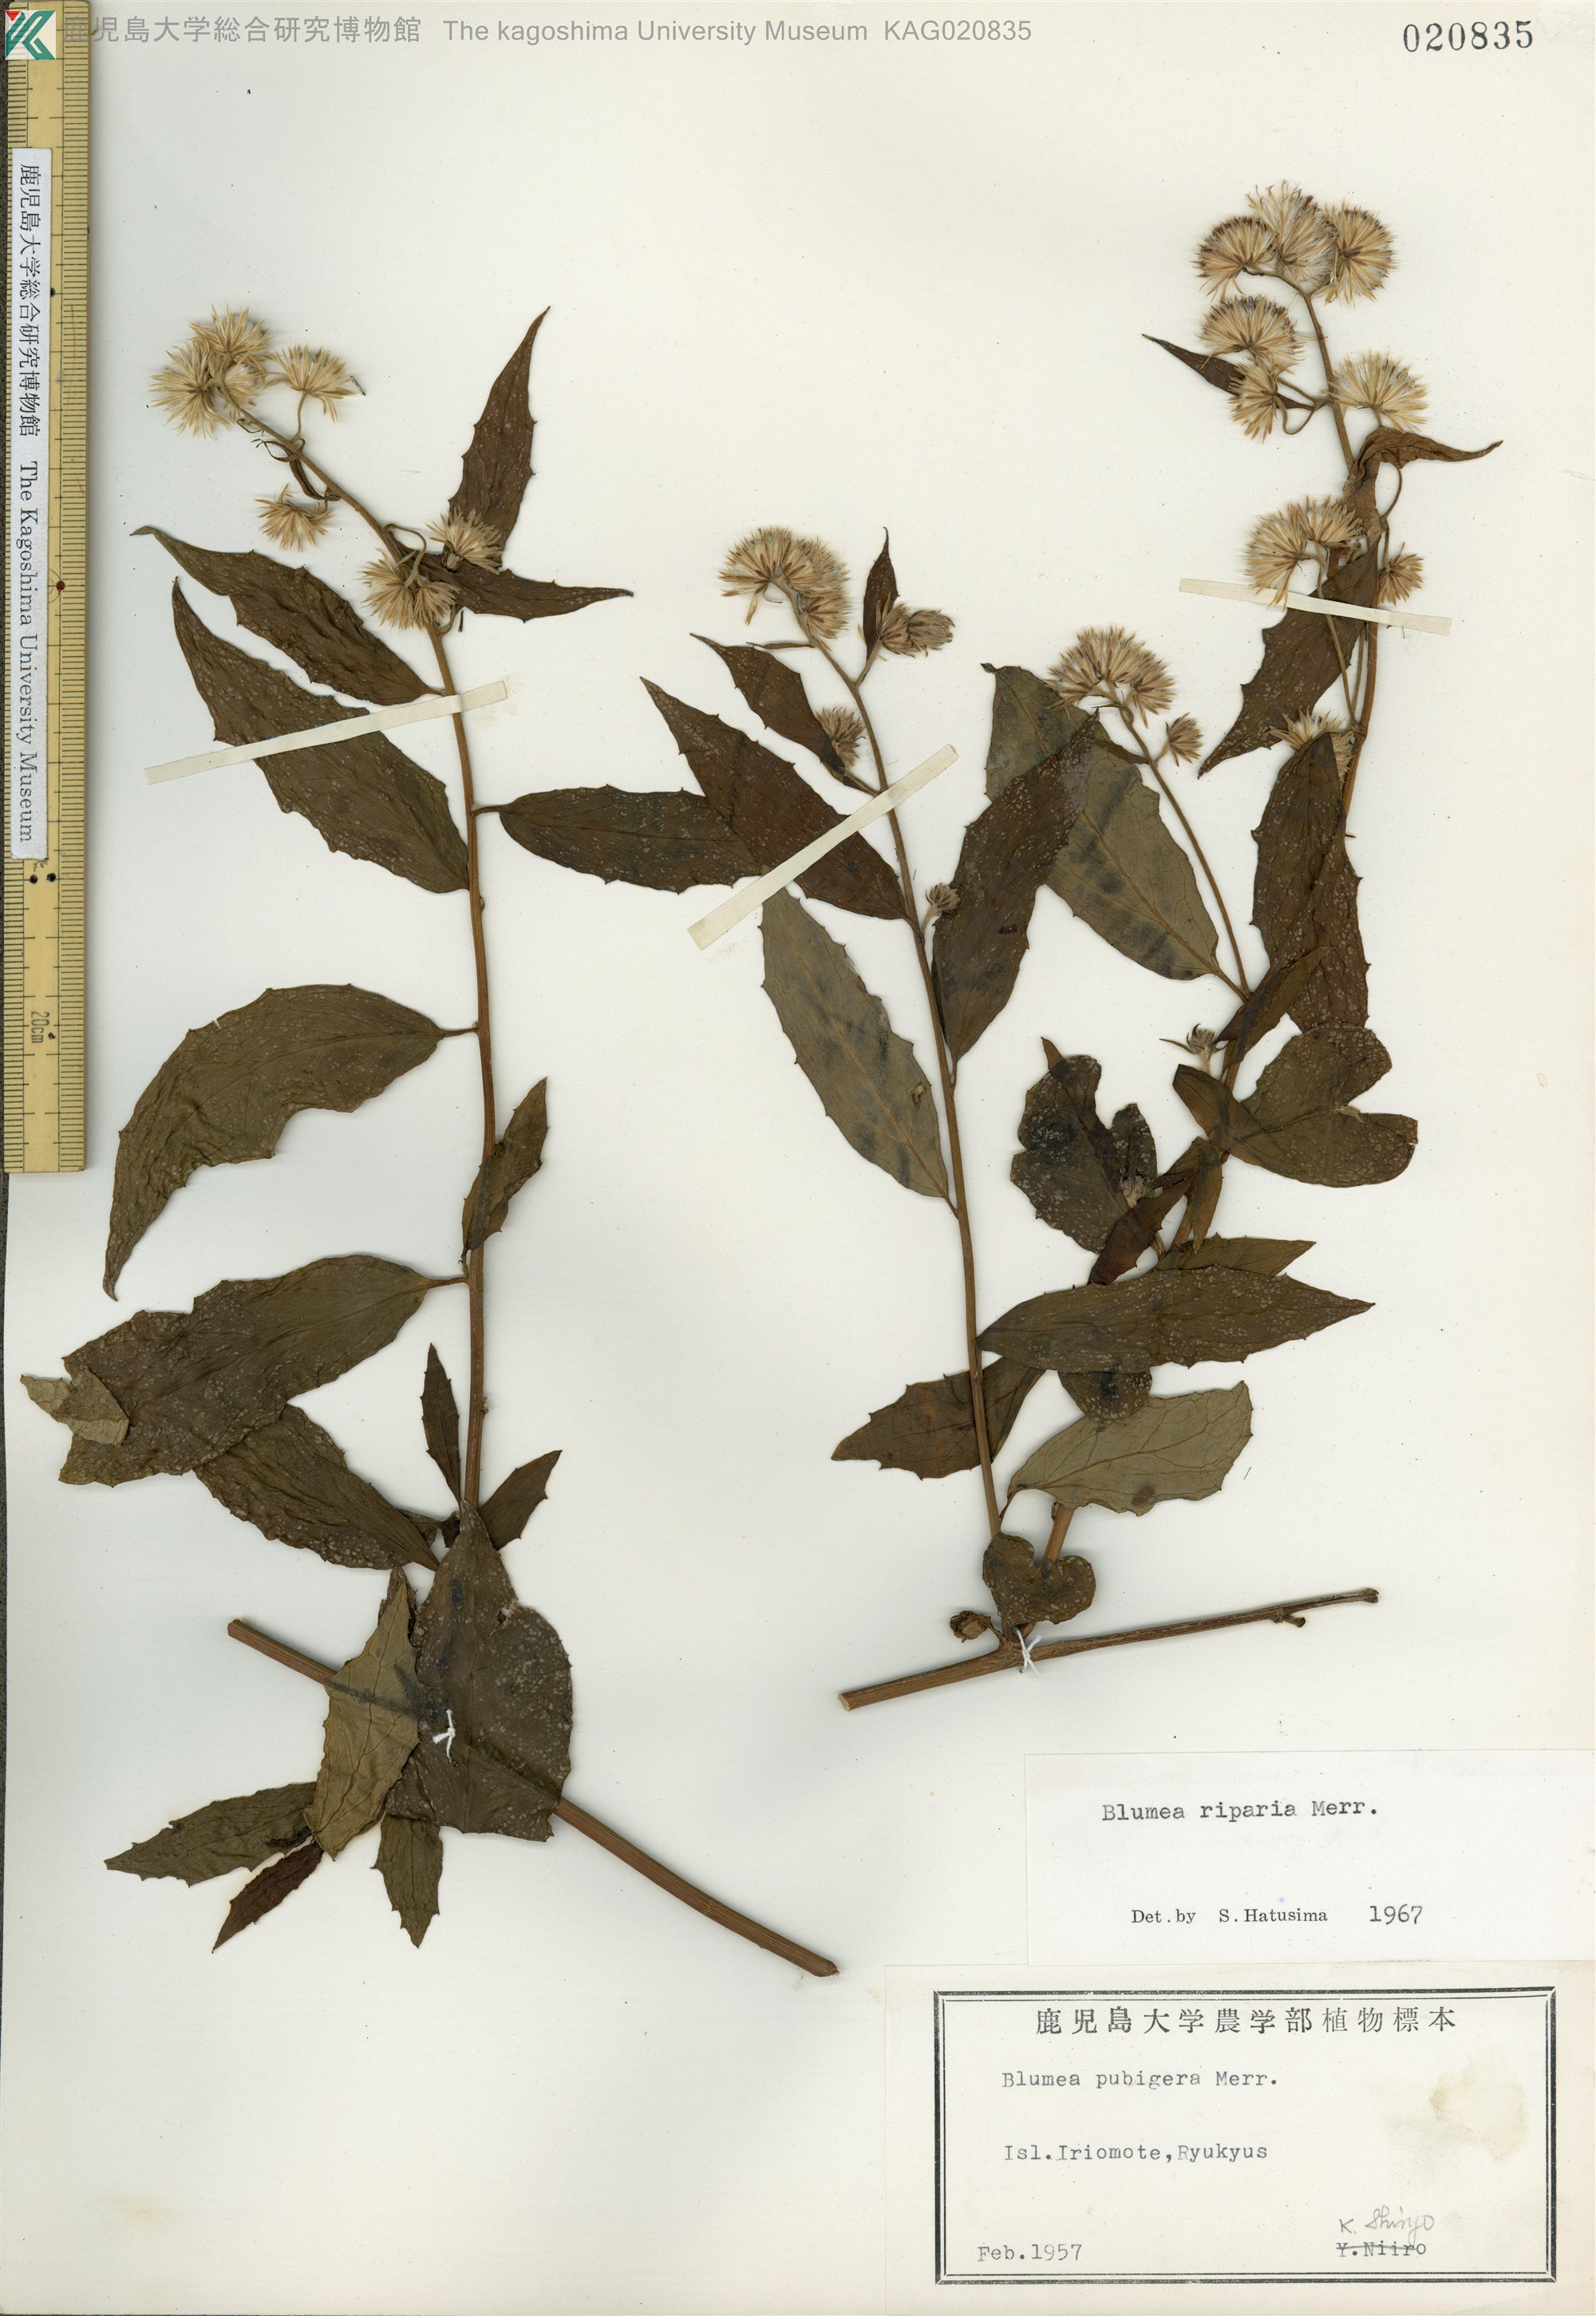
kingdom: Plantae
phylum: Tracheophyta
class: Magnoliopsida
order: Asterales
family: Asteraceae
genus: Blumea
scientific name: Blumea megacephala
